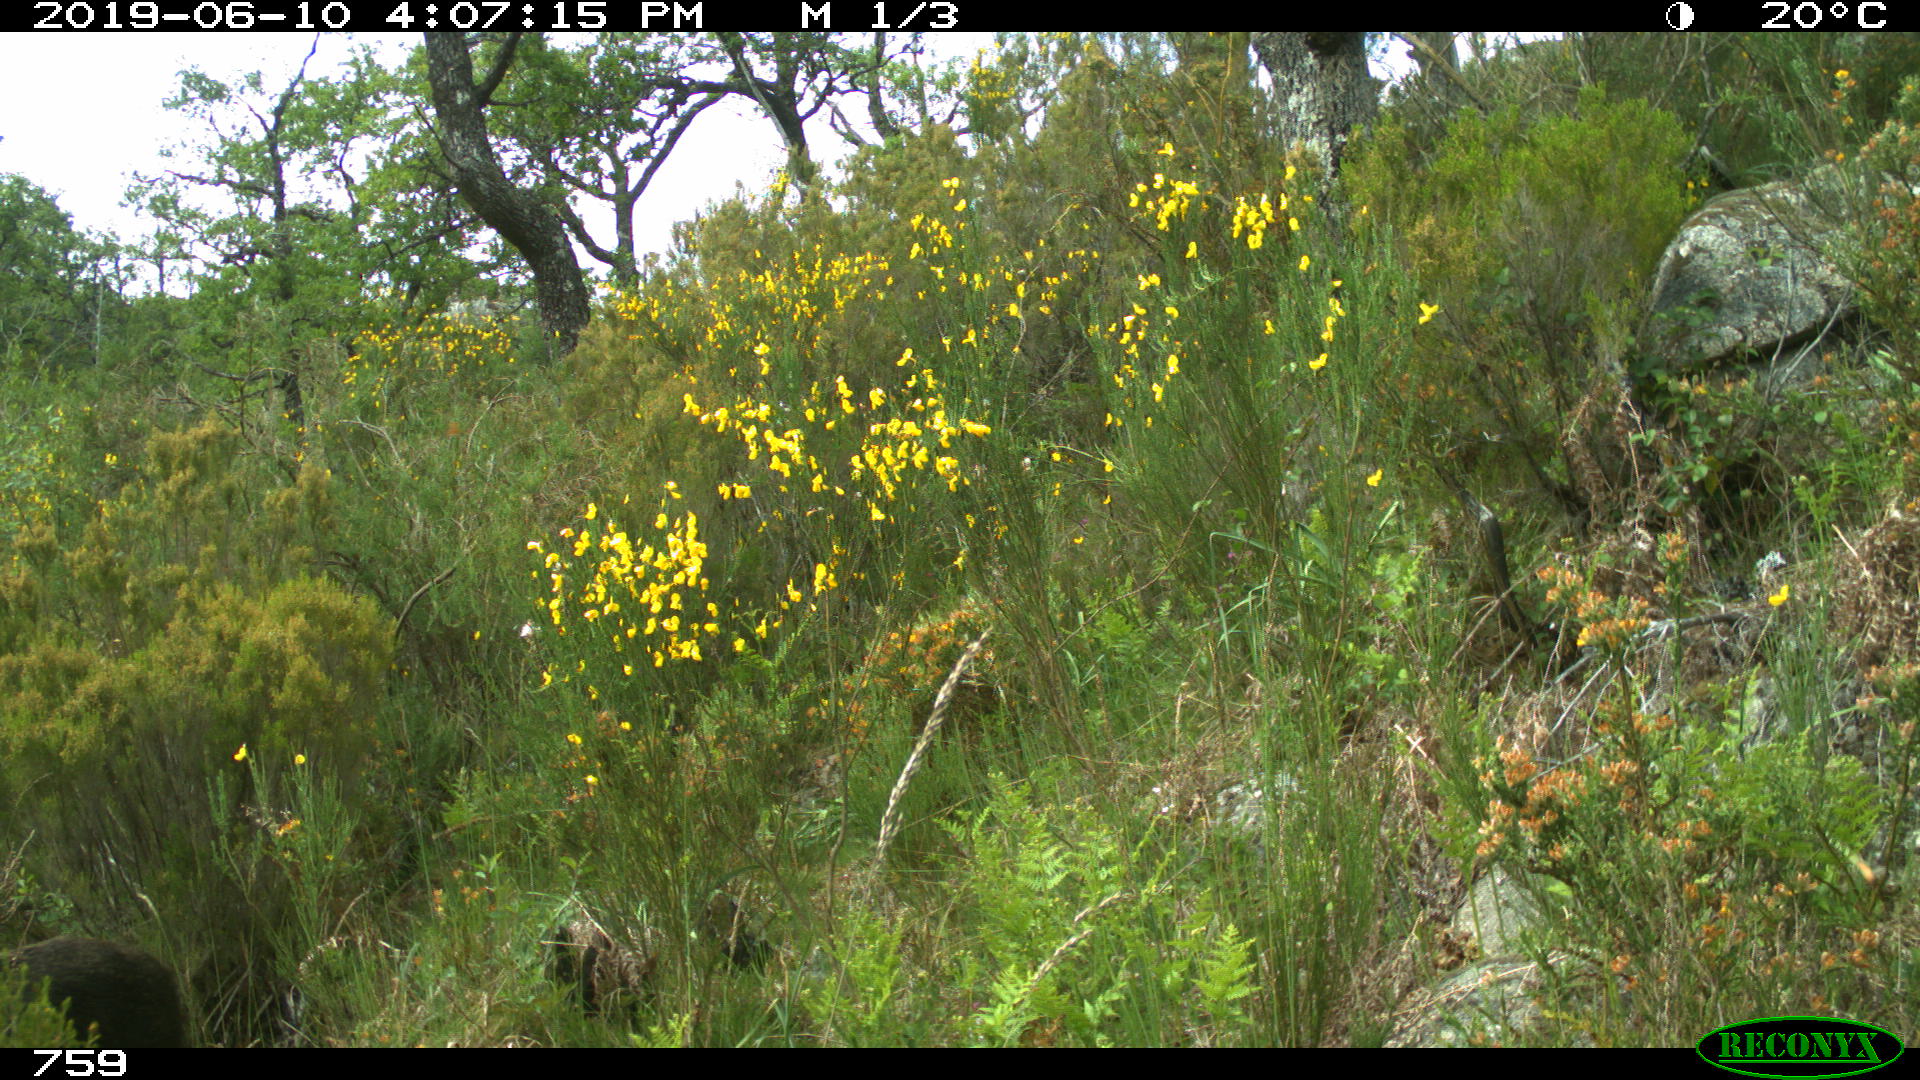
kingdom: Animalia
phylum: Chordata
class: Mammalia
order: Artiodactyla
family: Suidae
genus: Sus
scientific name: Sus scrofa
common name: Wild boar
